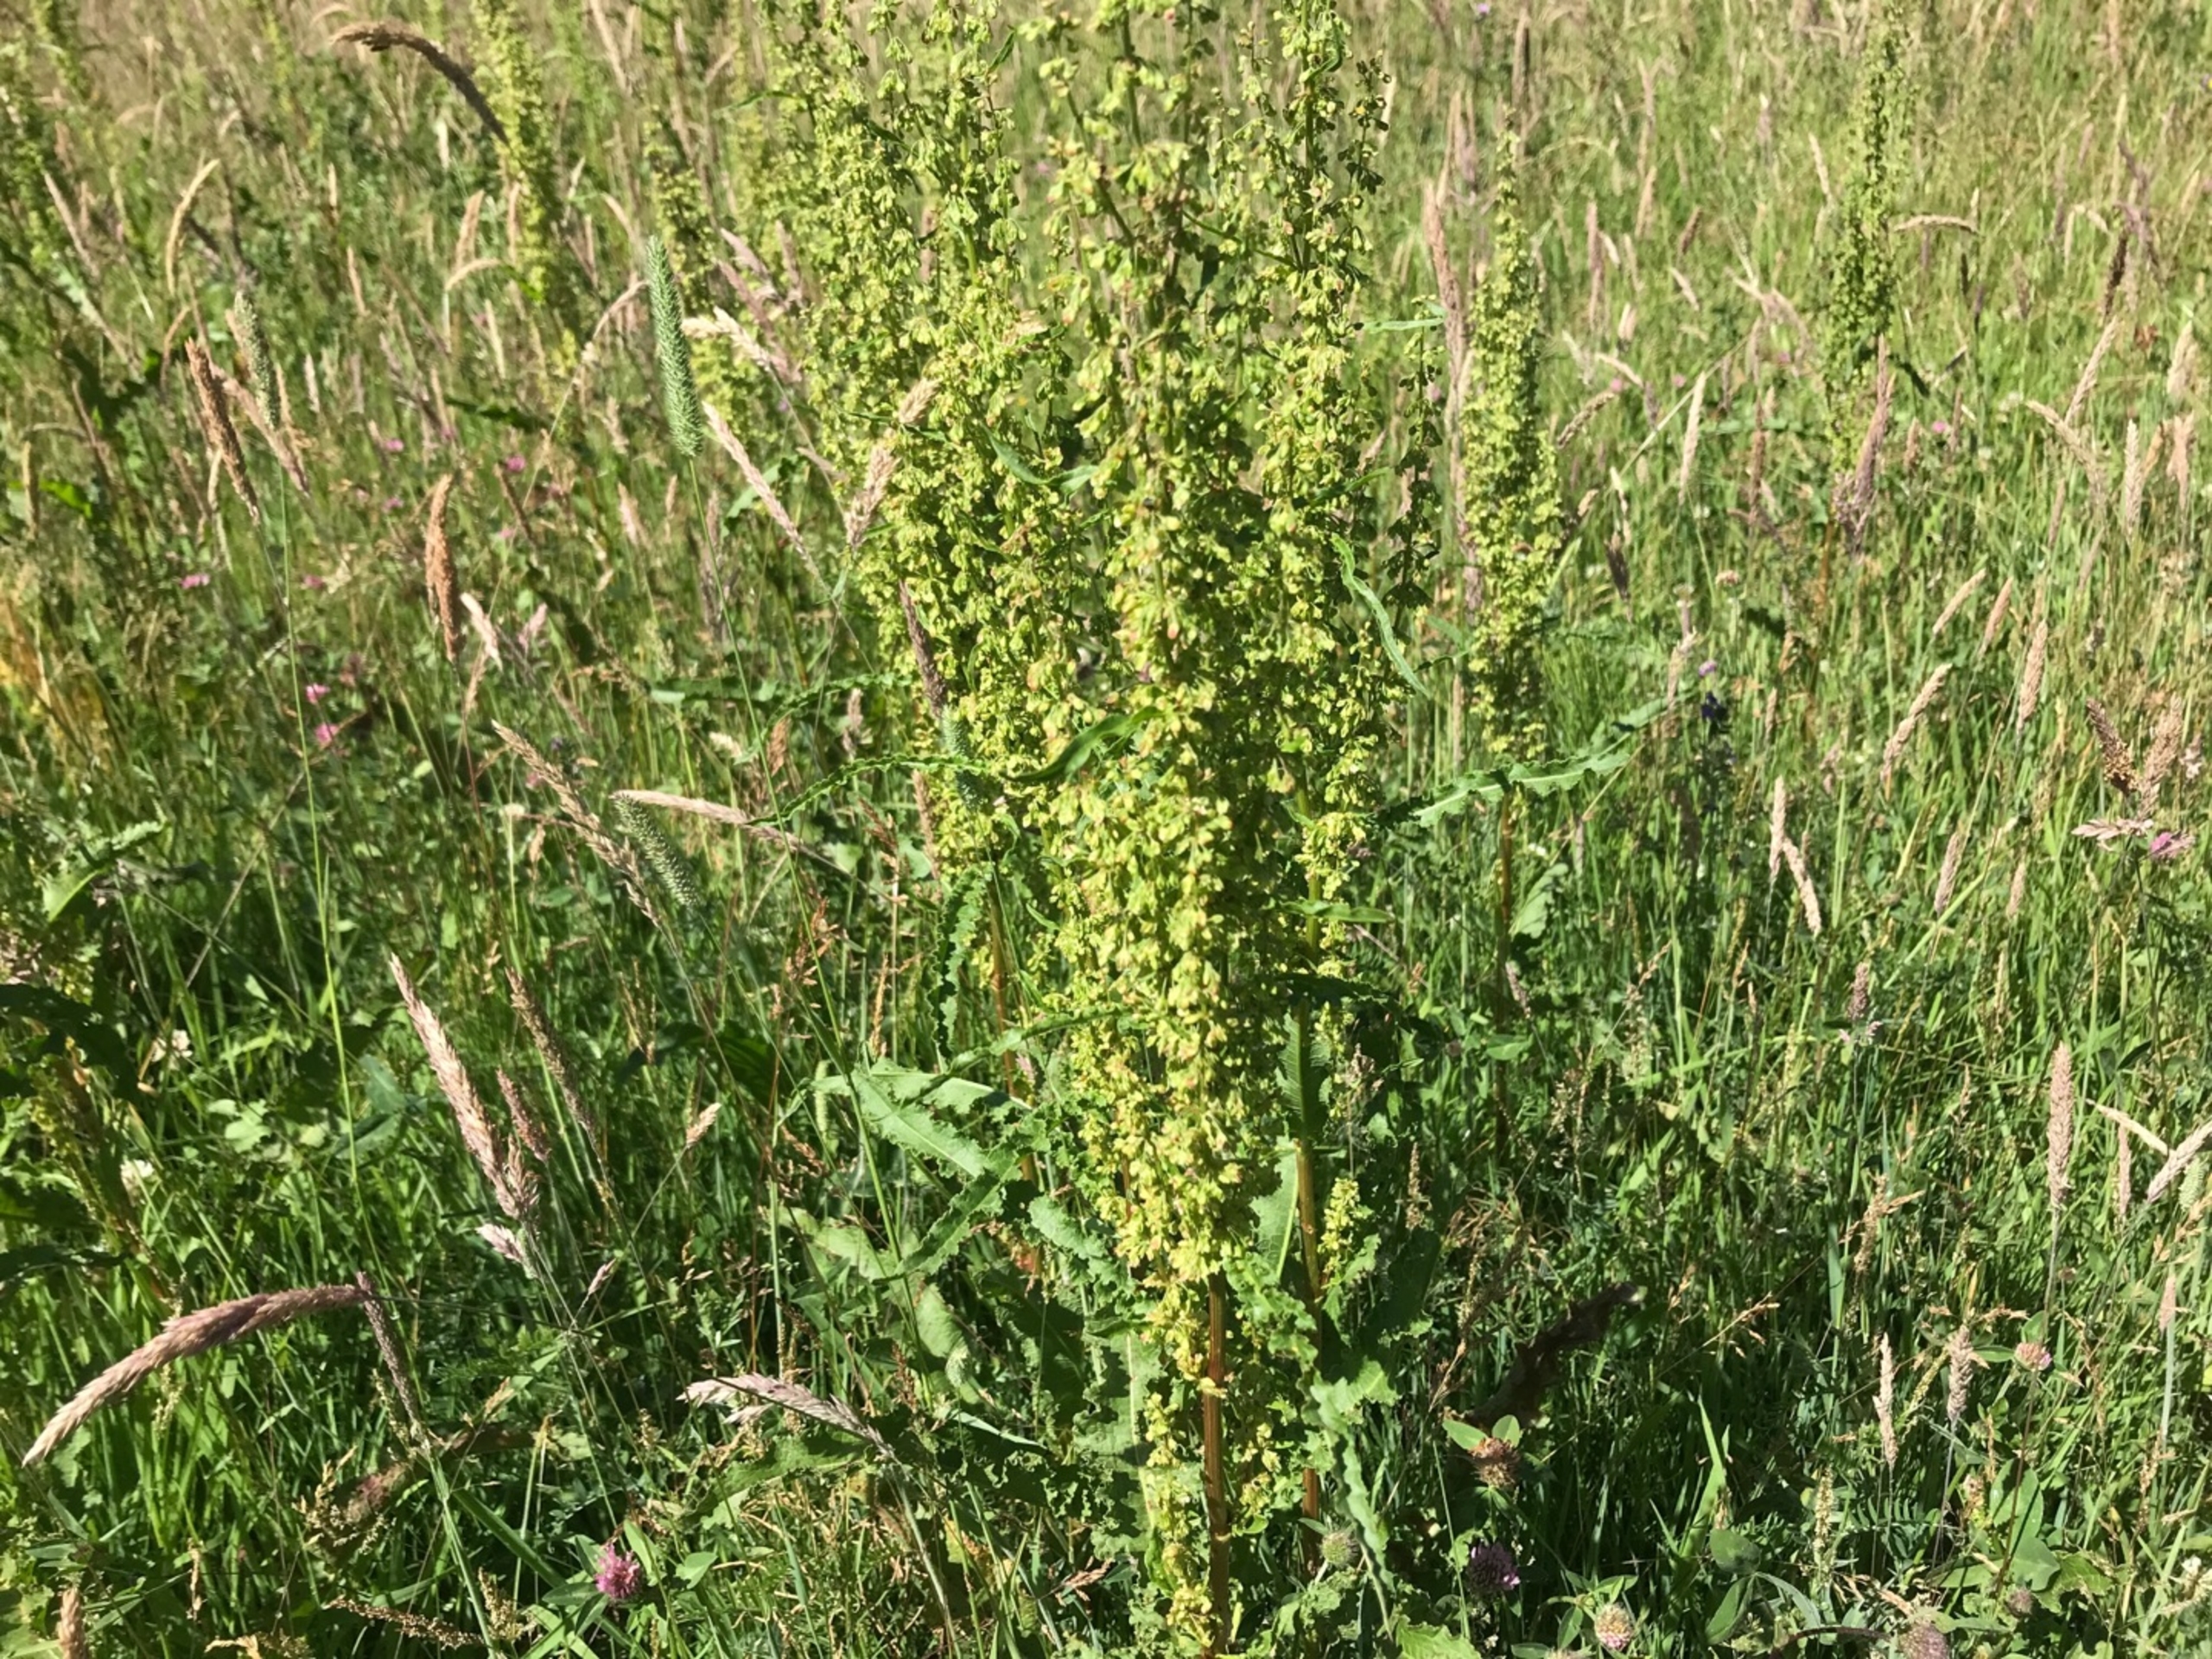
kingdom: Plantae
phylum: Tracheophyta
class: Magnoliopsida
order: Caryophyllales
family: Polygonaceae
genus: Rumex
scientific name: Rumex crispus
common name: Kruset skræppe
